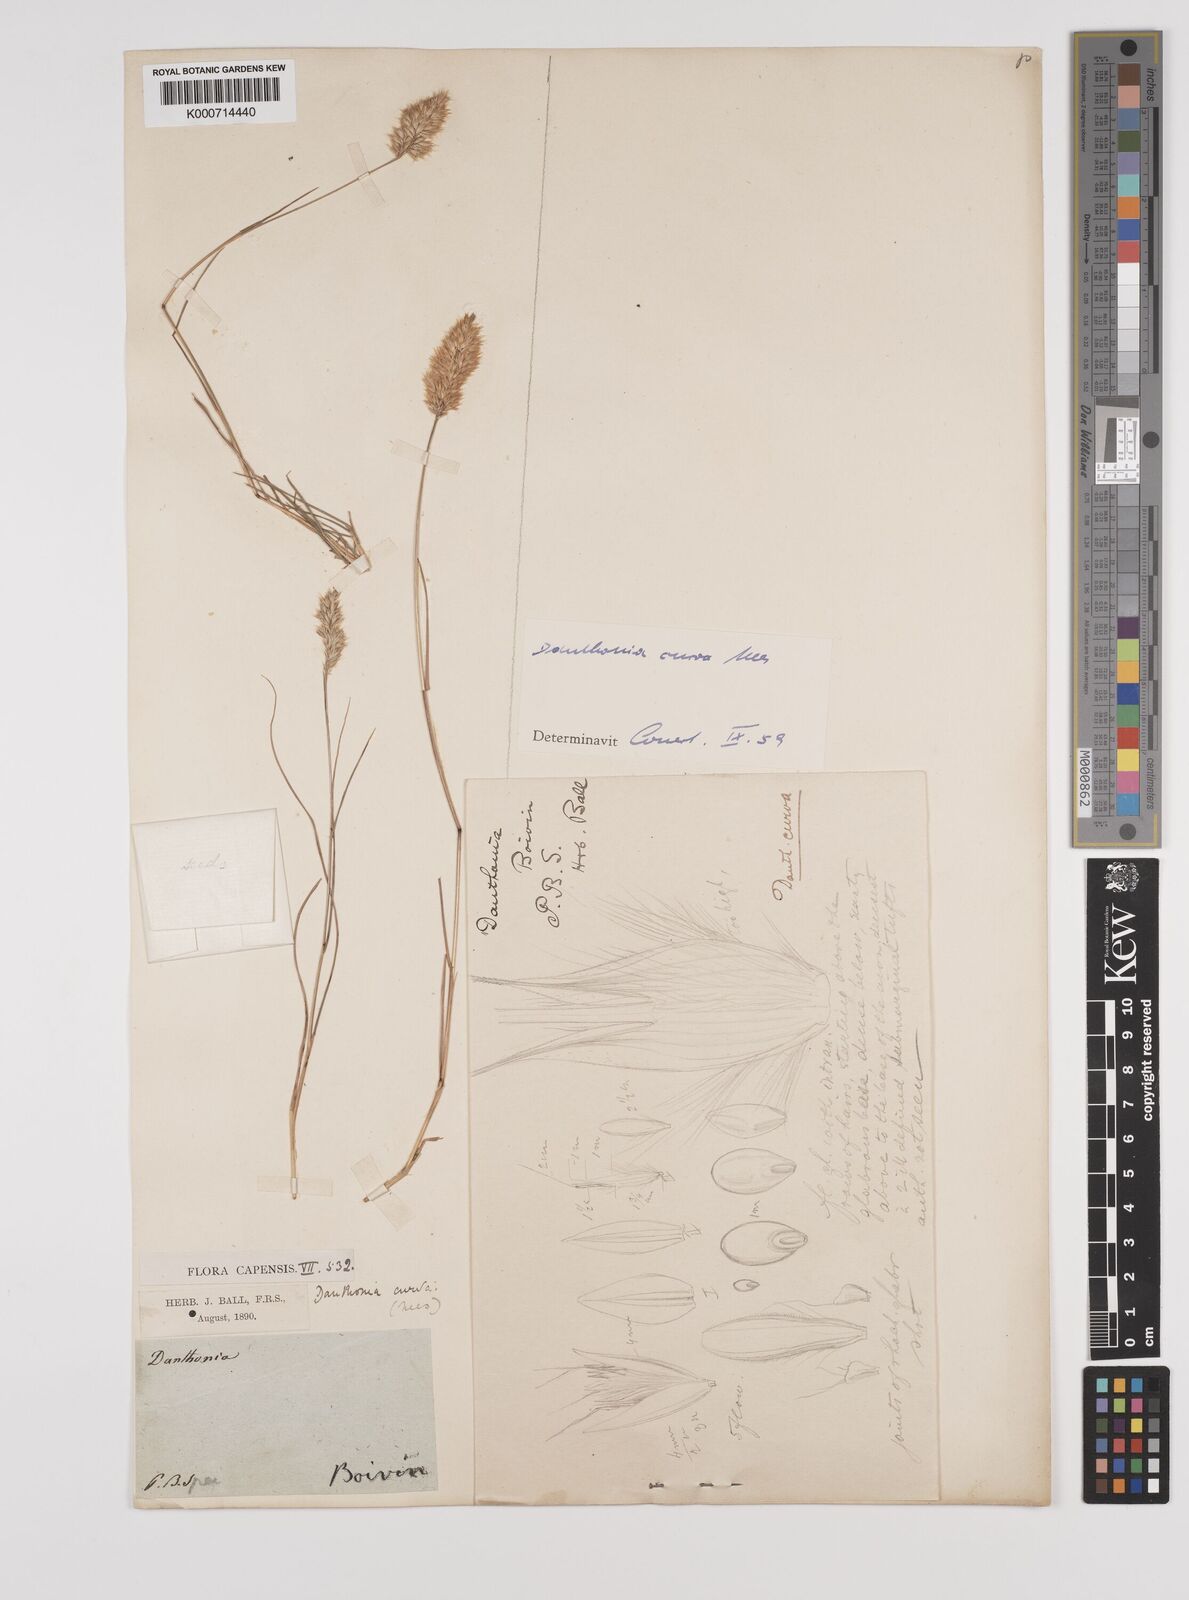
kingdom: Plantae
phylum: Tracheophyta
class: Liliopsida
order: Poales
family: Poaceae
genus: Rytidosperma
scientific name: Rytidosperma
